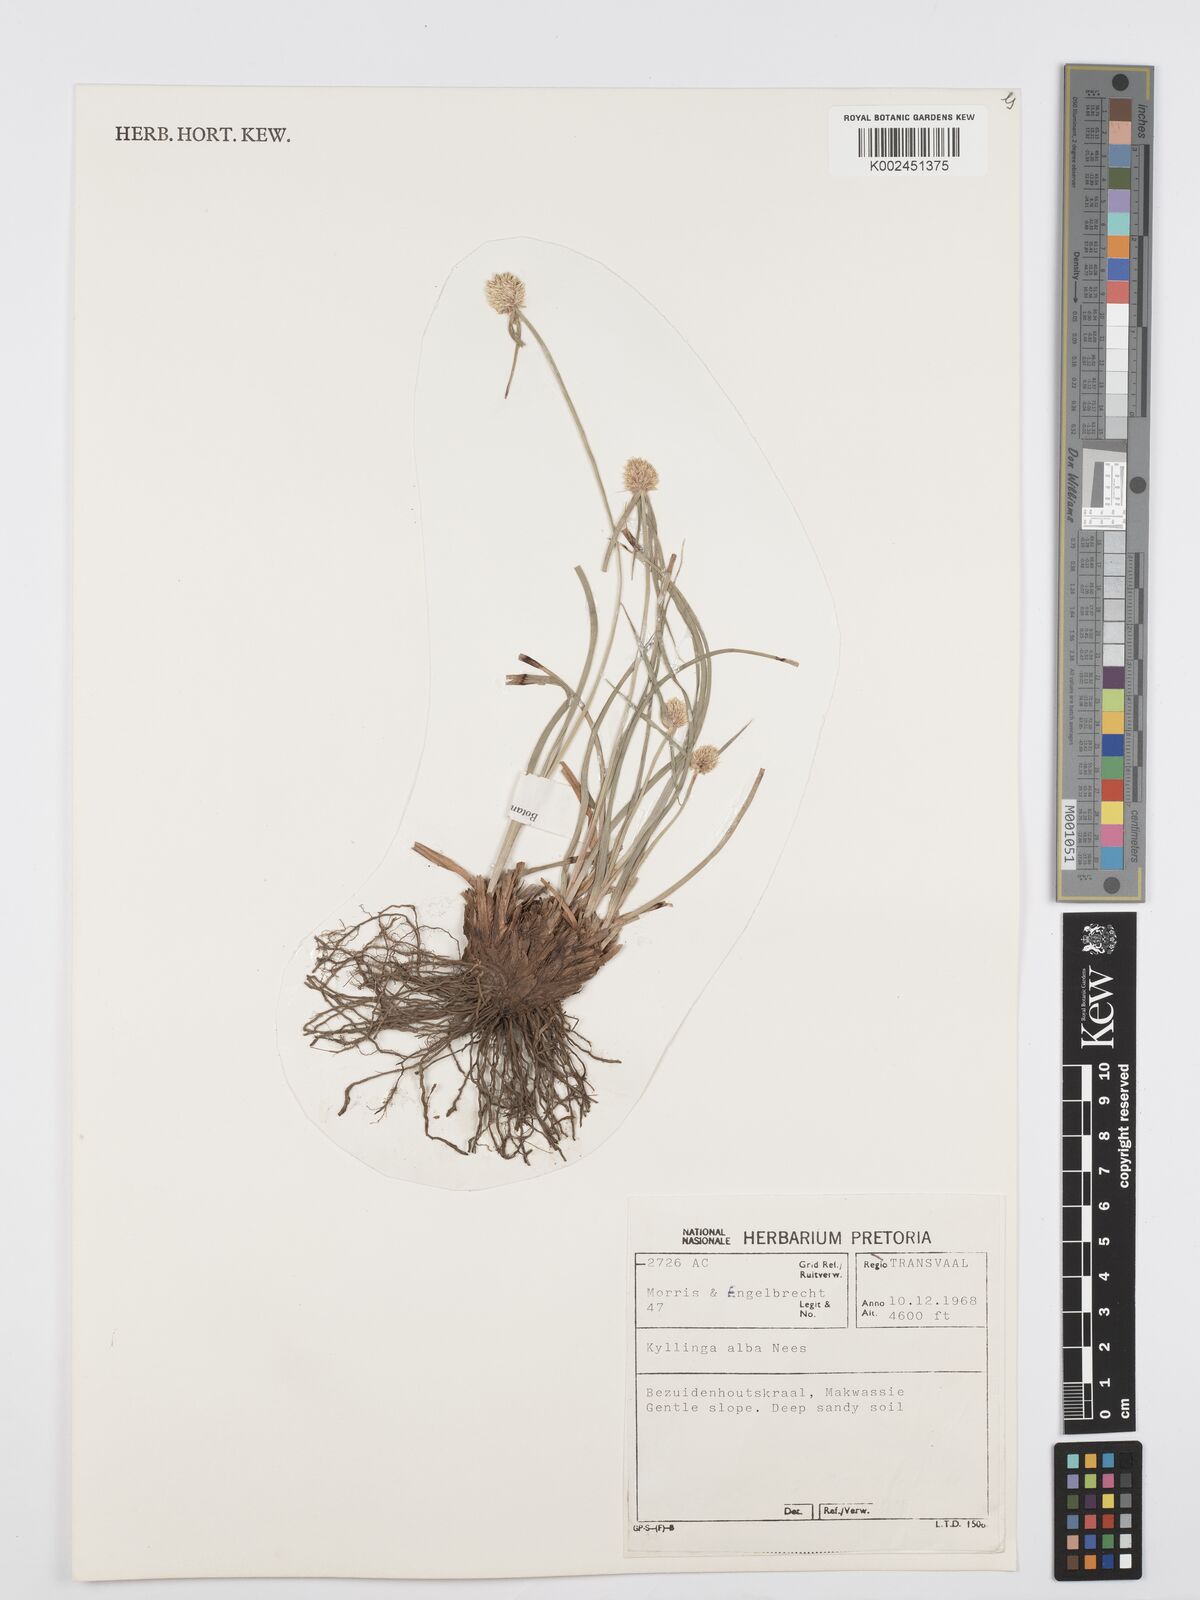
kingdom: Plantae
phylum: Tracheophyta
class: Liliopsida
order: Poales
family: Cyperaceae
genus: Cyperus
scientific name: Cyperus
